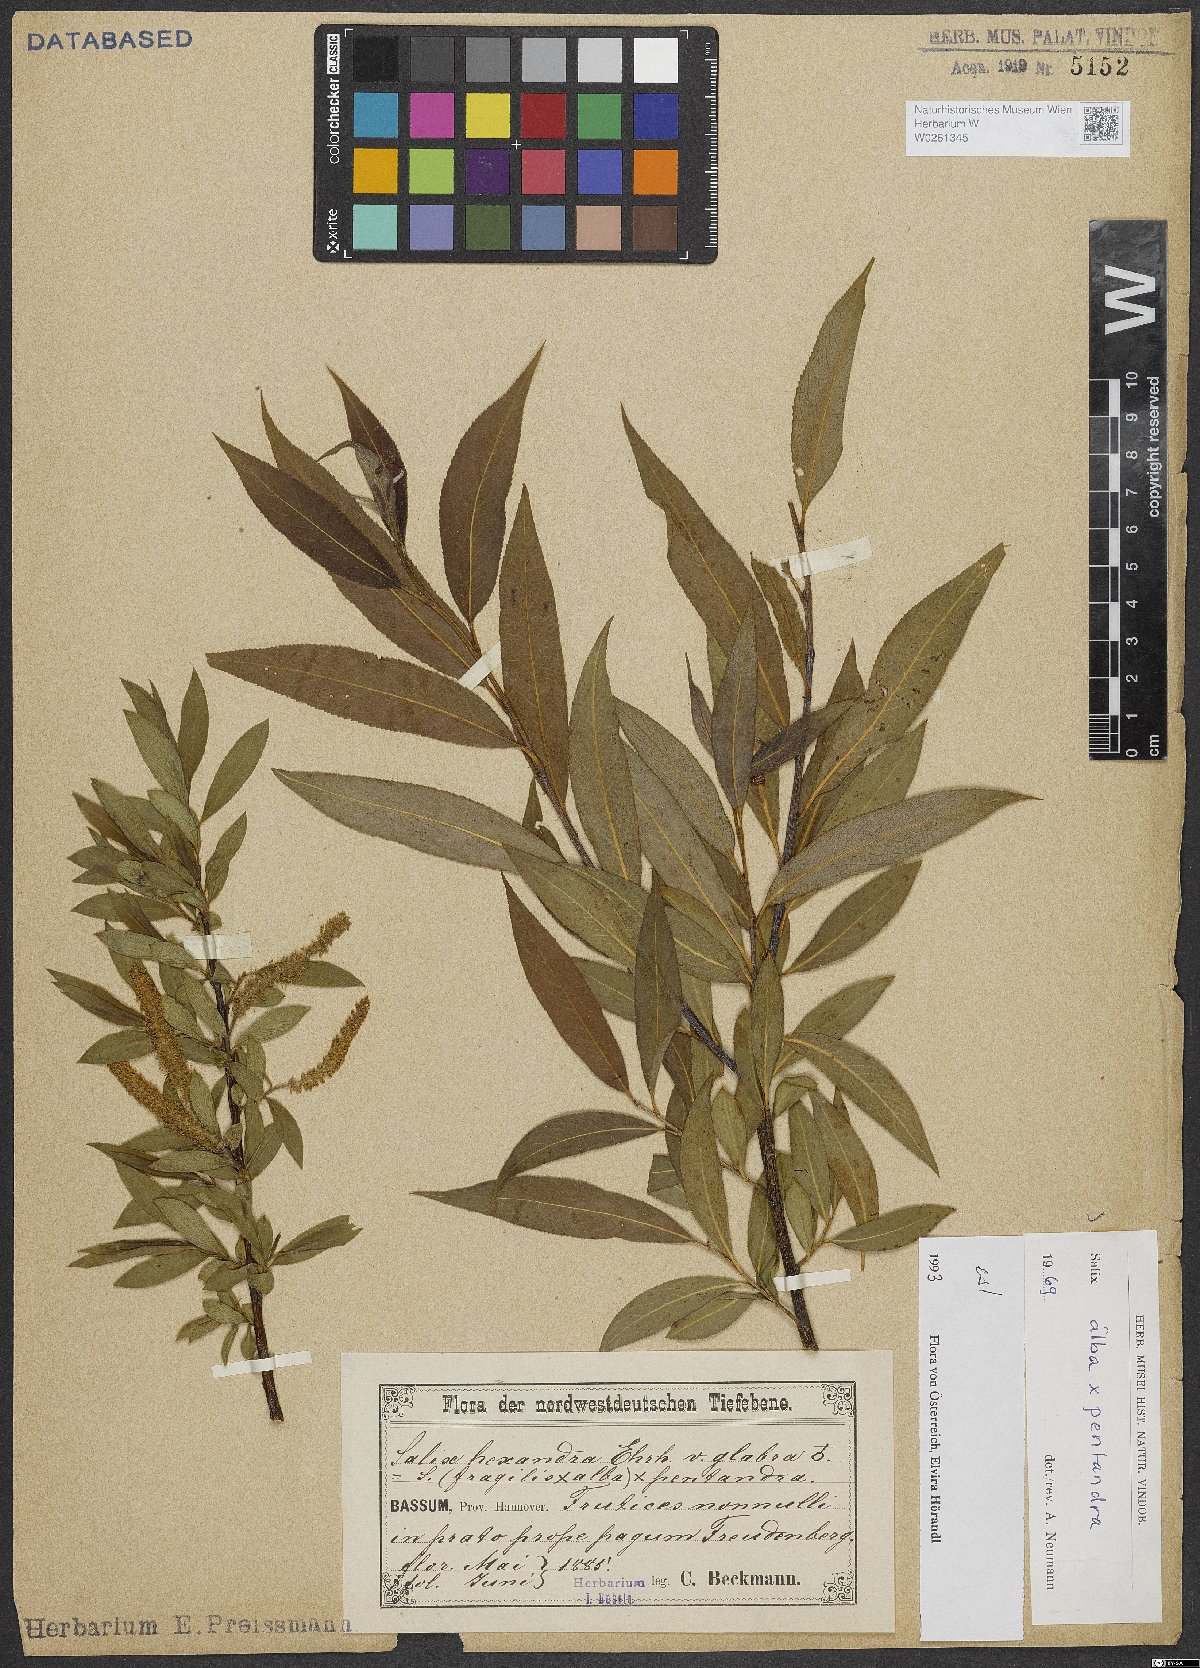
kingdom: Plantae
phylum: Tracheophyta
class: Magnoliopsida
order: Malpighiales
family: Salicaceae
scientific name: Salicaceae
